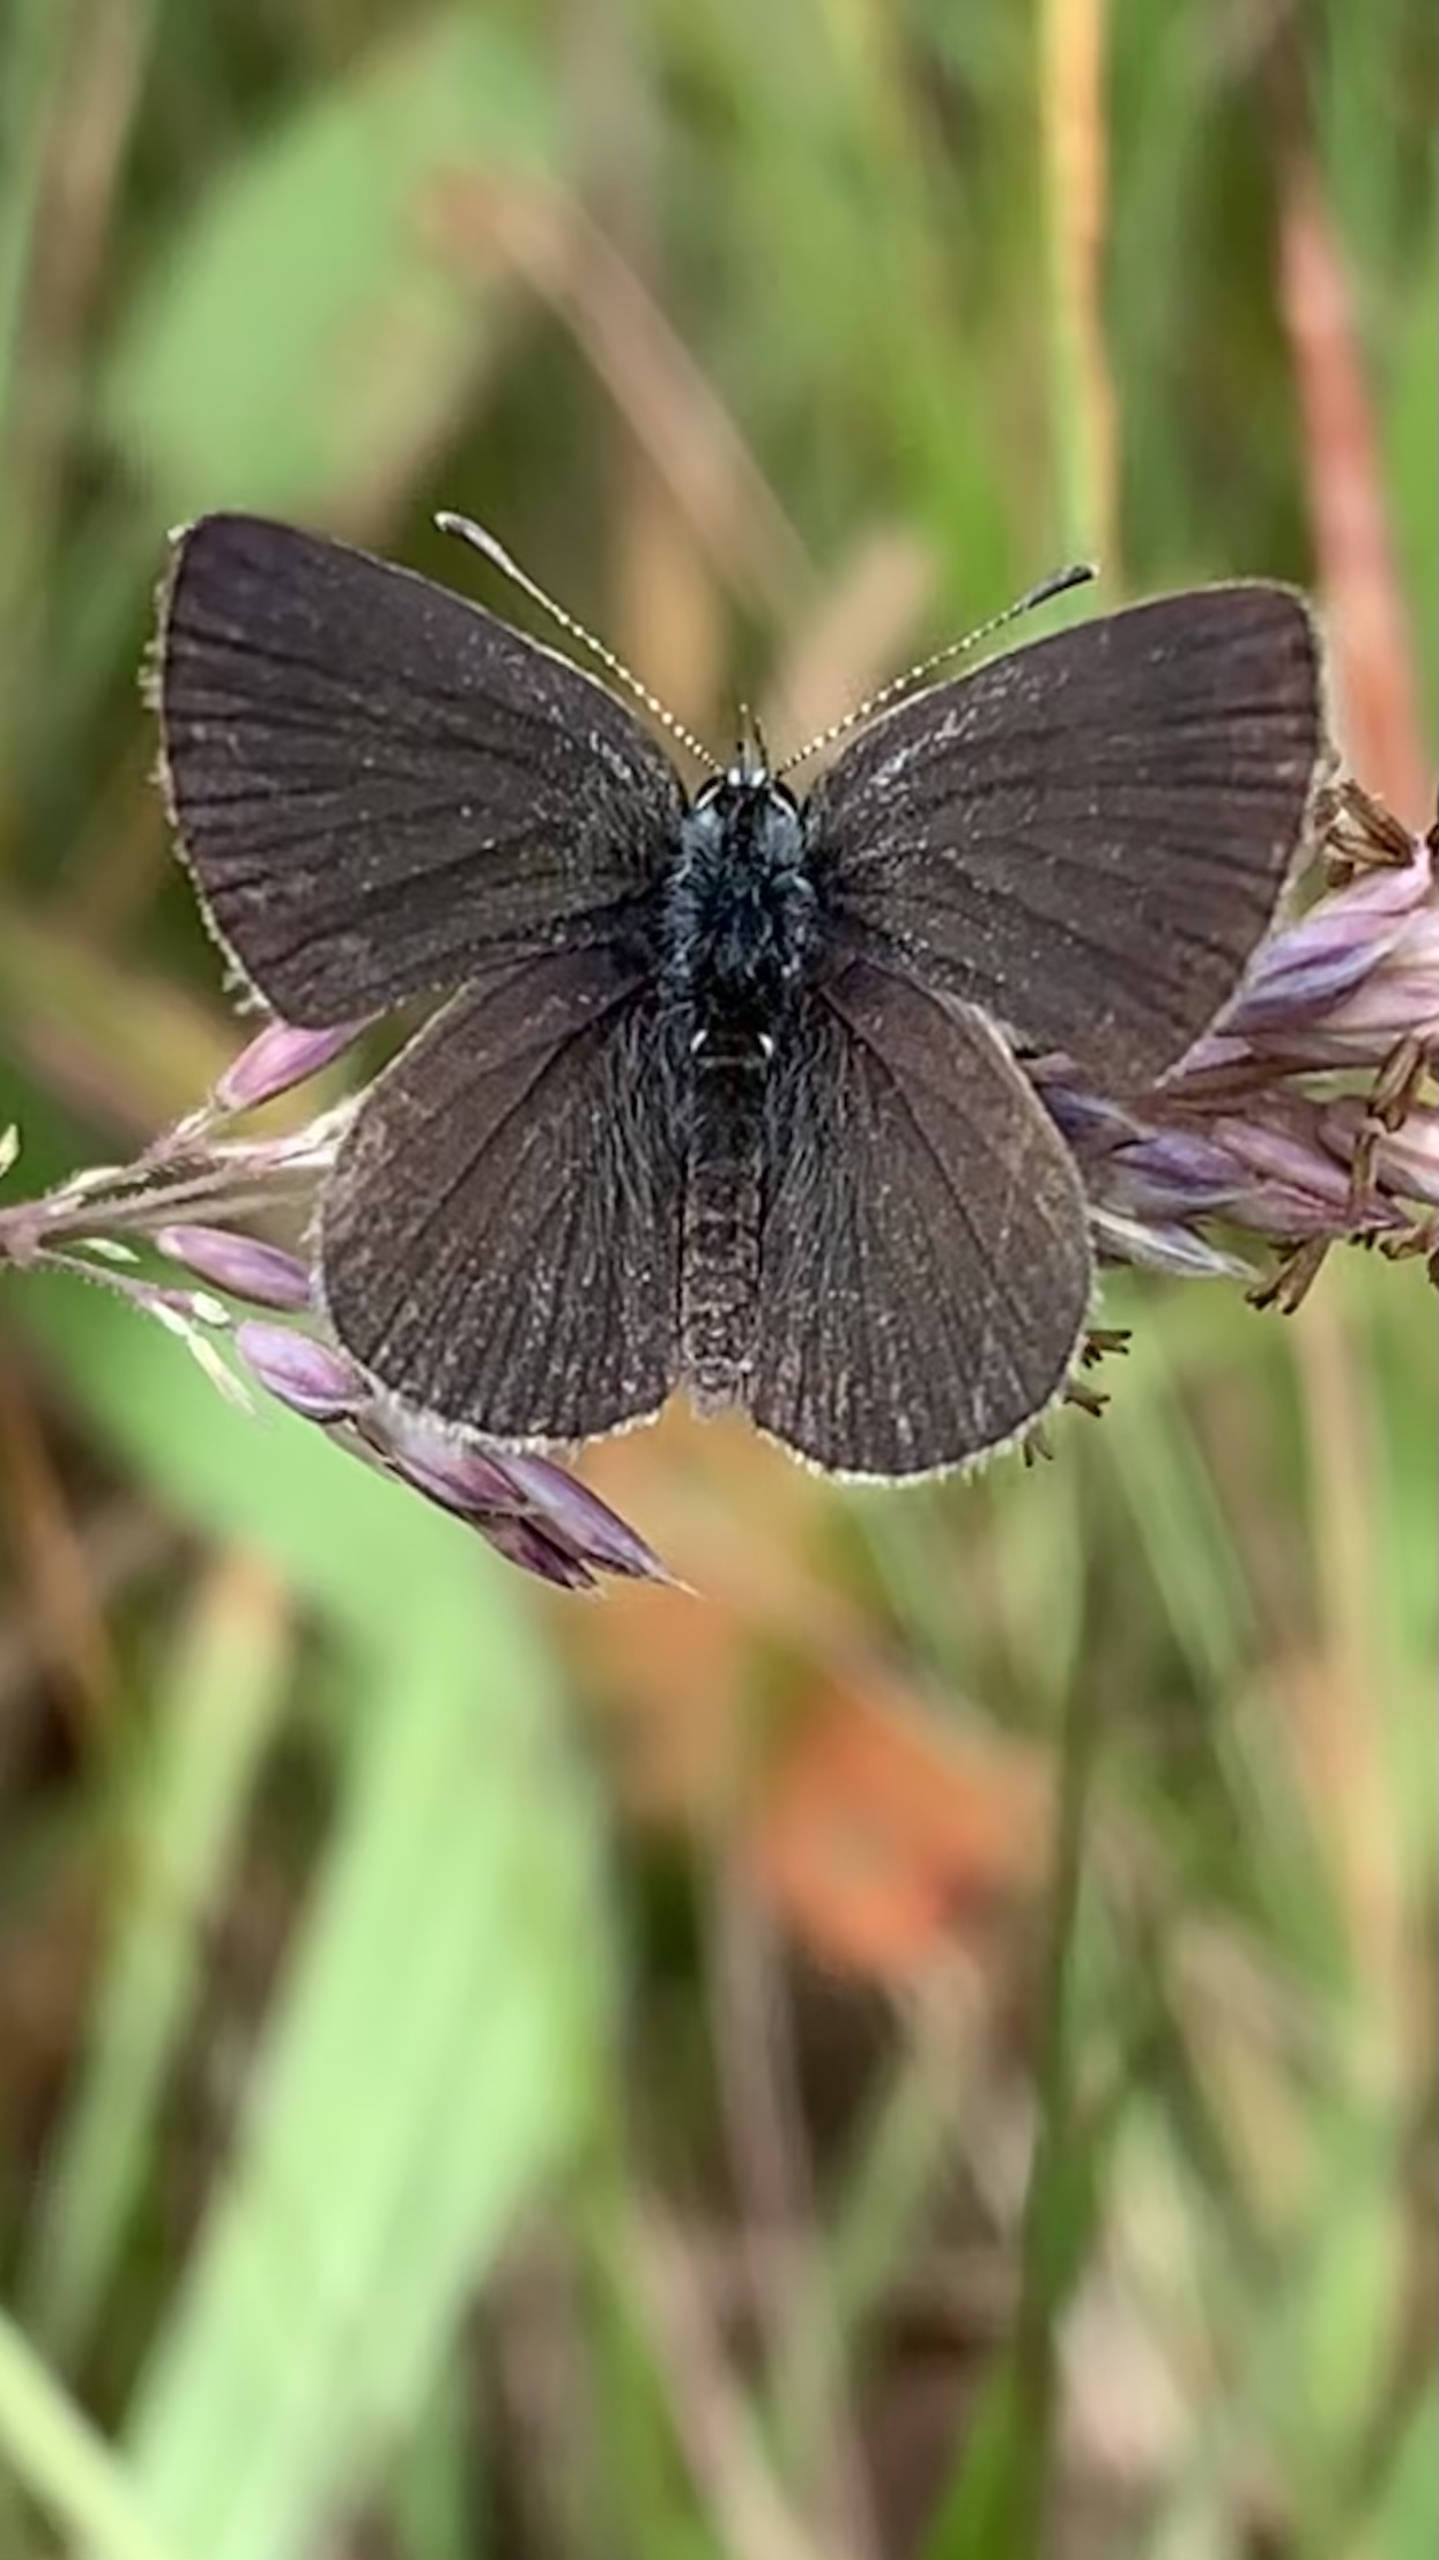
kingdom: Animalia
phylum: Arthropoda
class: Insecta
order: Lepidoptera
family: Lycaenidae
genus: Cupido
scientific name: Cupido minimus
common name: Dværgblåfugl
